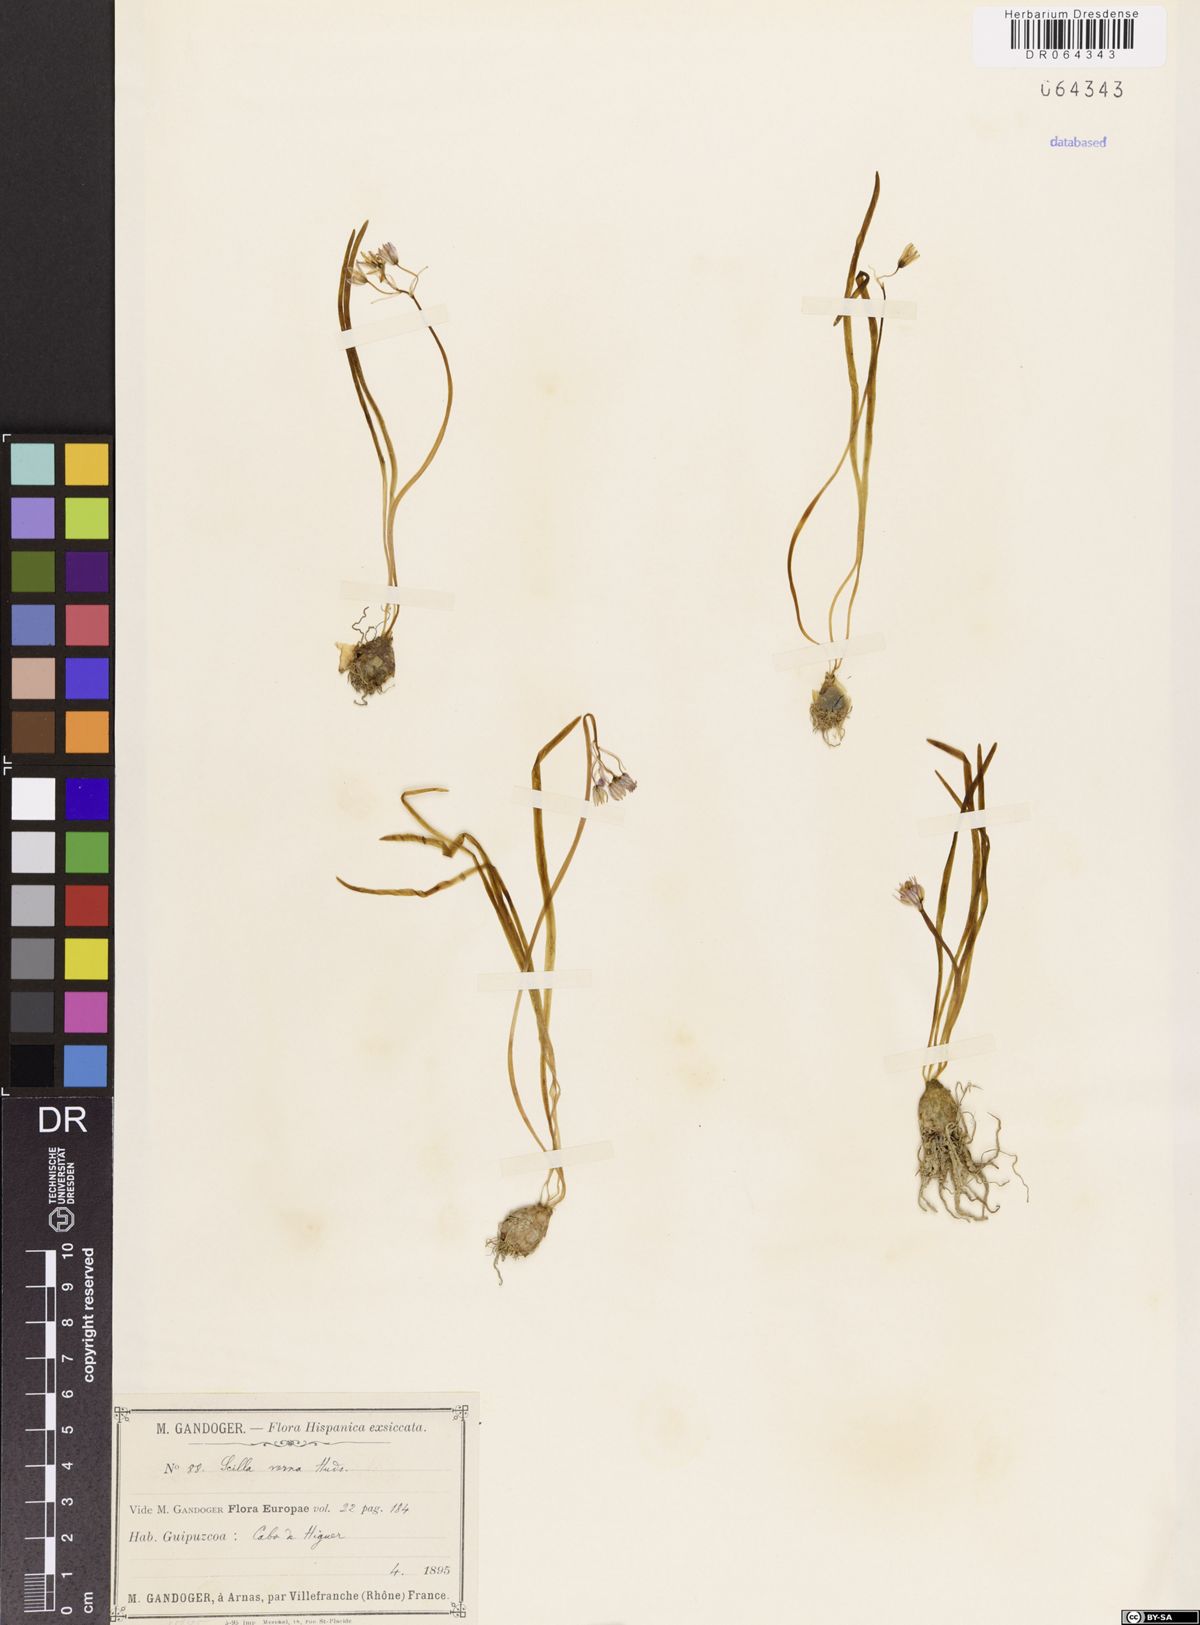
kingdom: Plantae
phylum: Tracheophyta
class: Liliopsida
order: Asparagales
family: Asparagaceae
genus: Scilla
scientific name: Scilla verna
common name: Spring squill
